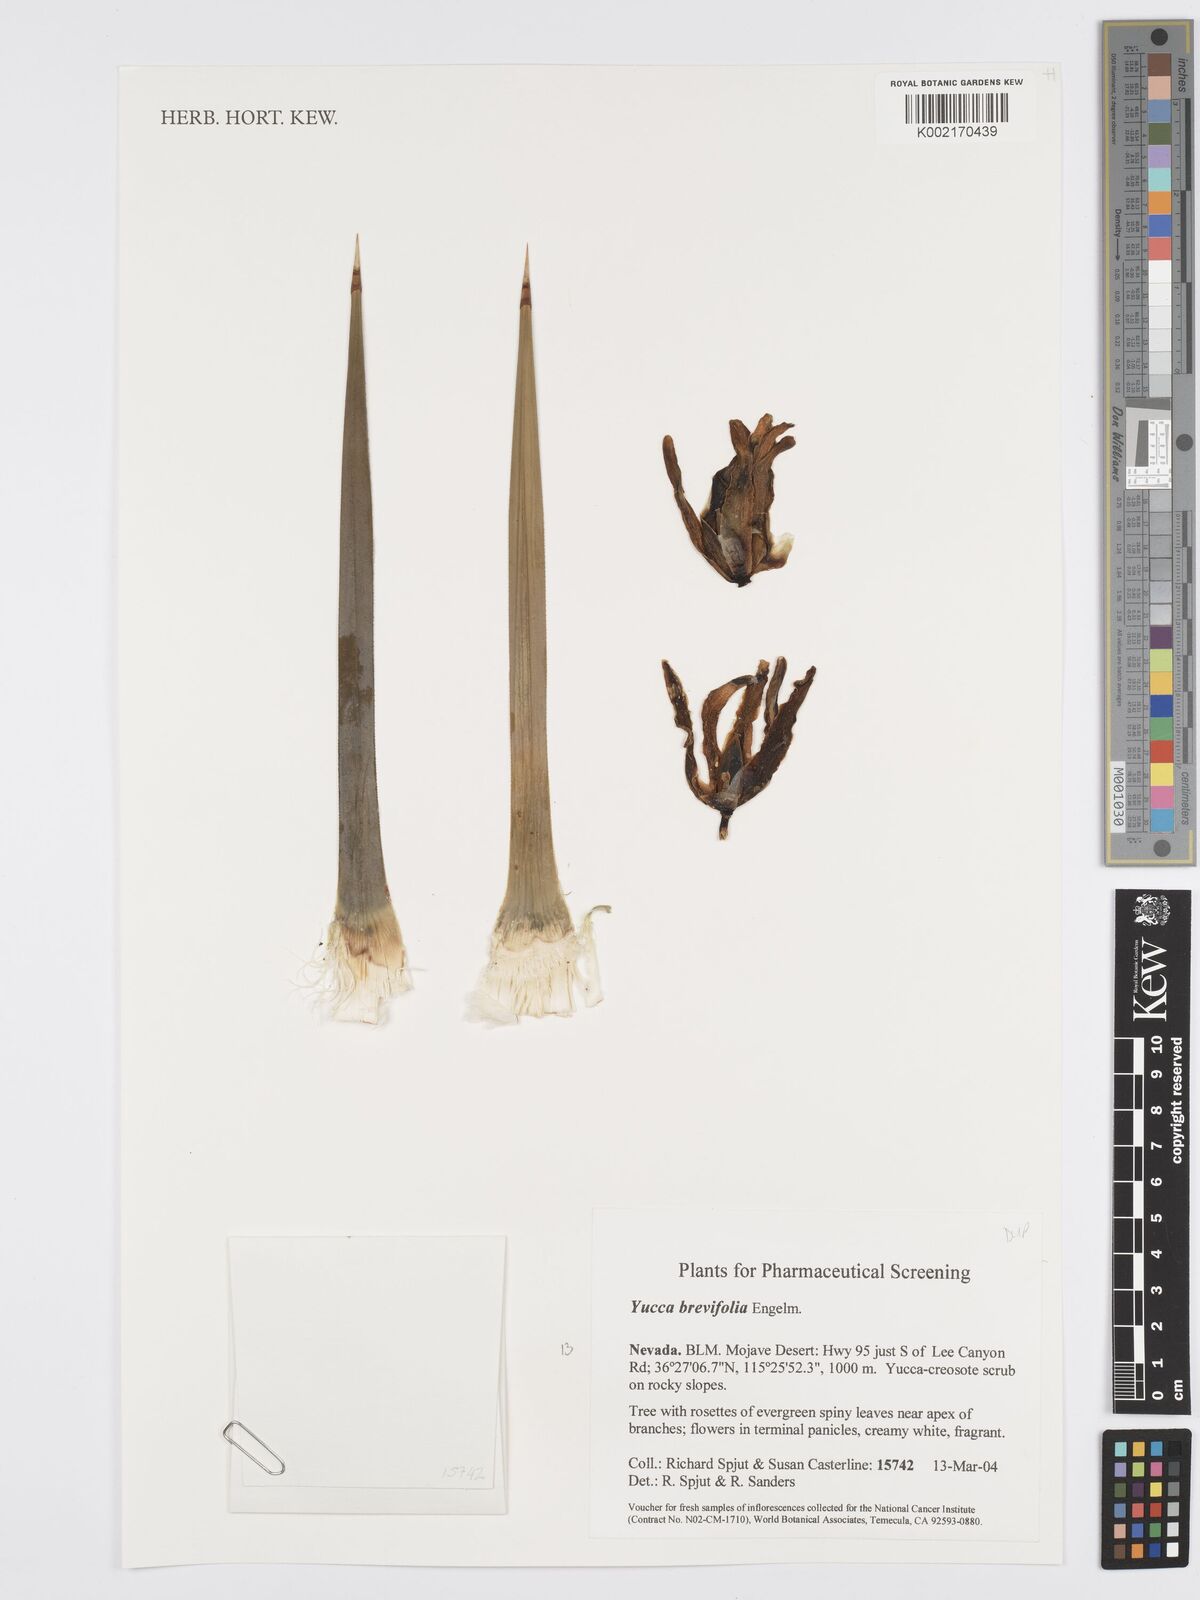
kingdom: Plantae
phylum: Tracheophyta
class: Liliopsida
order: Asparagales
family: Asparagaceae
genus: Yucca
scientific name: Yucca baccata
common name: Banana yucca
